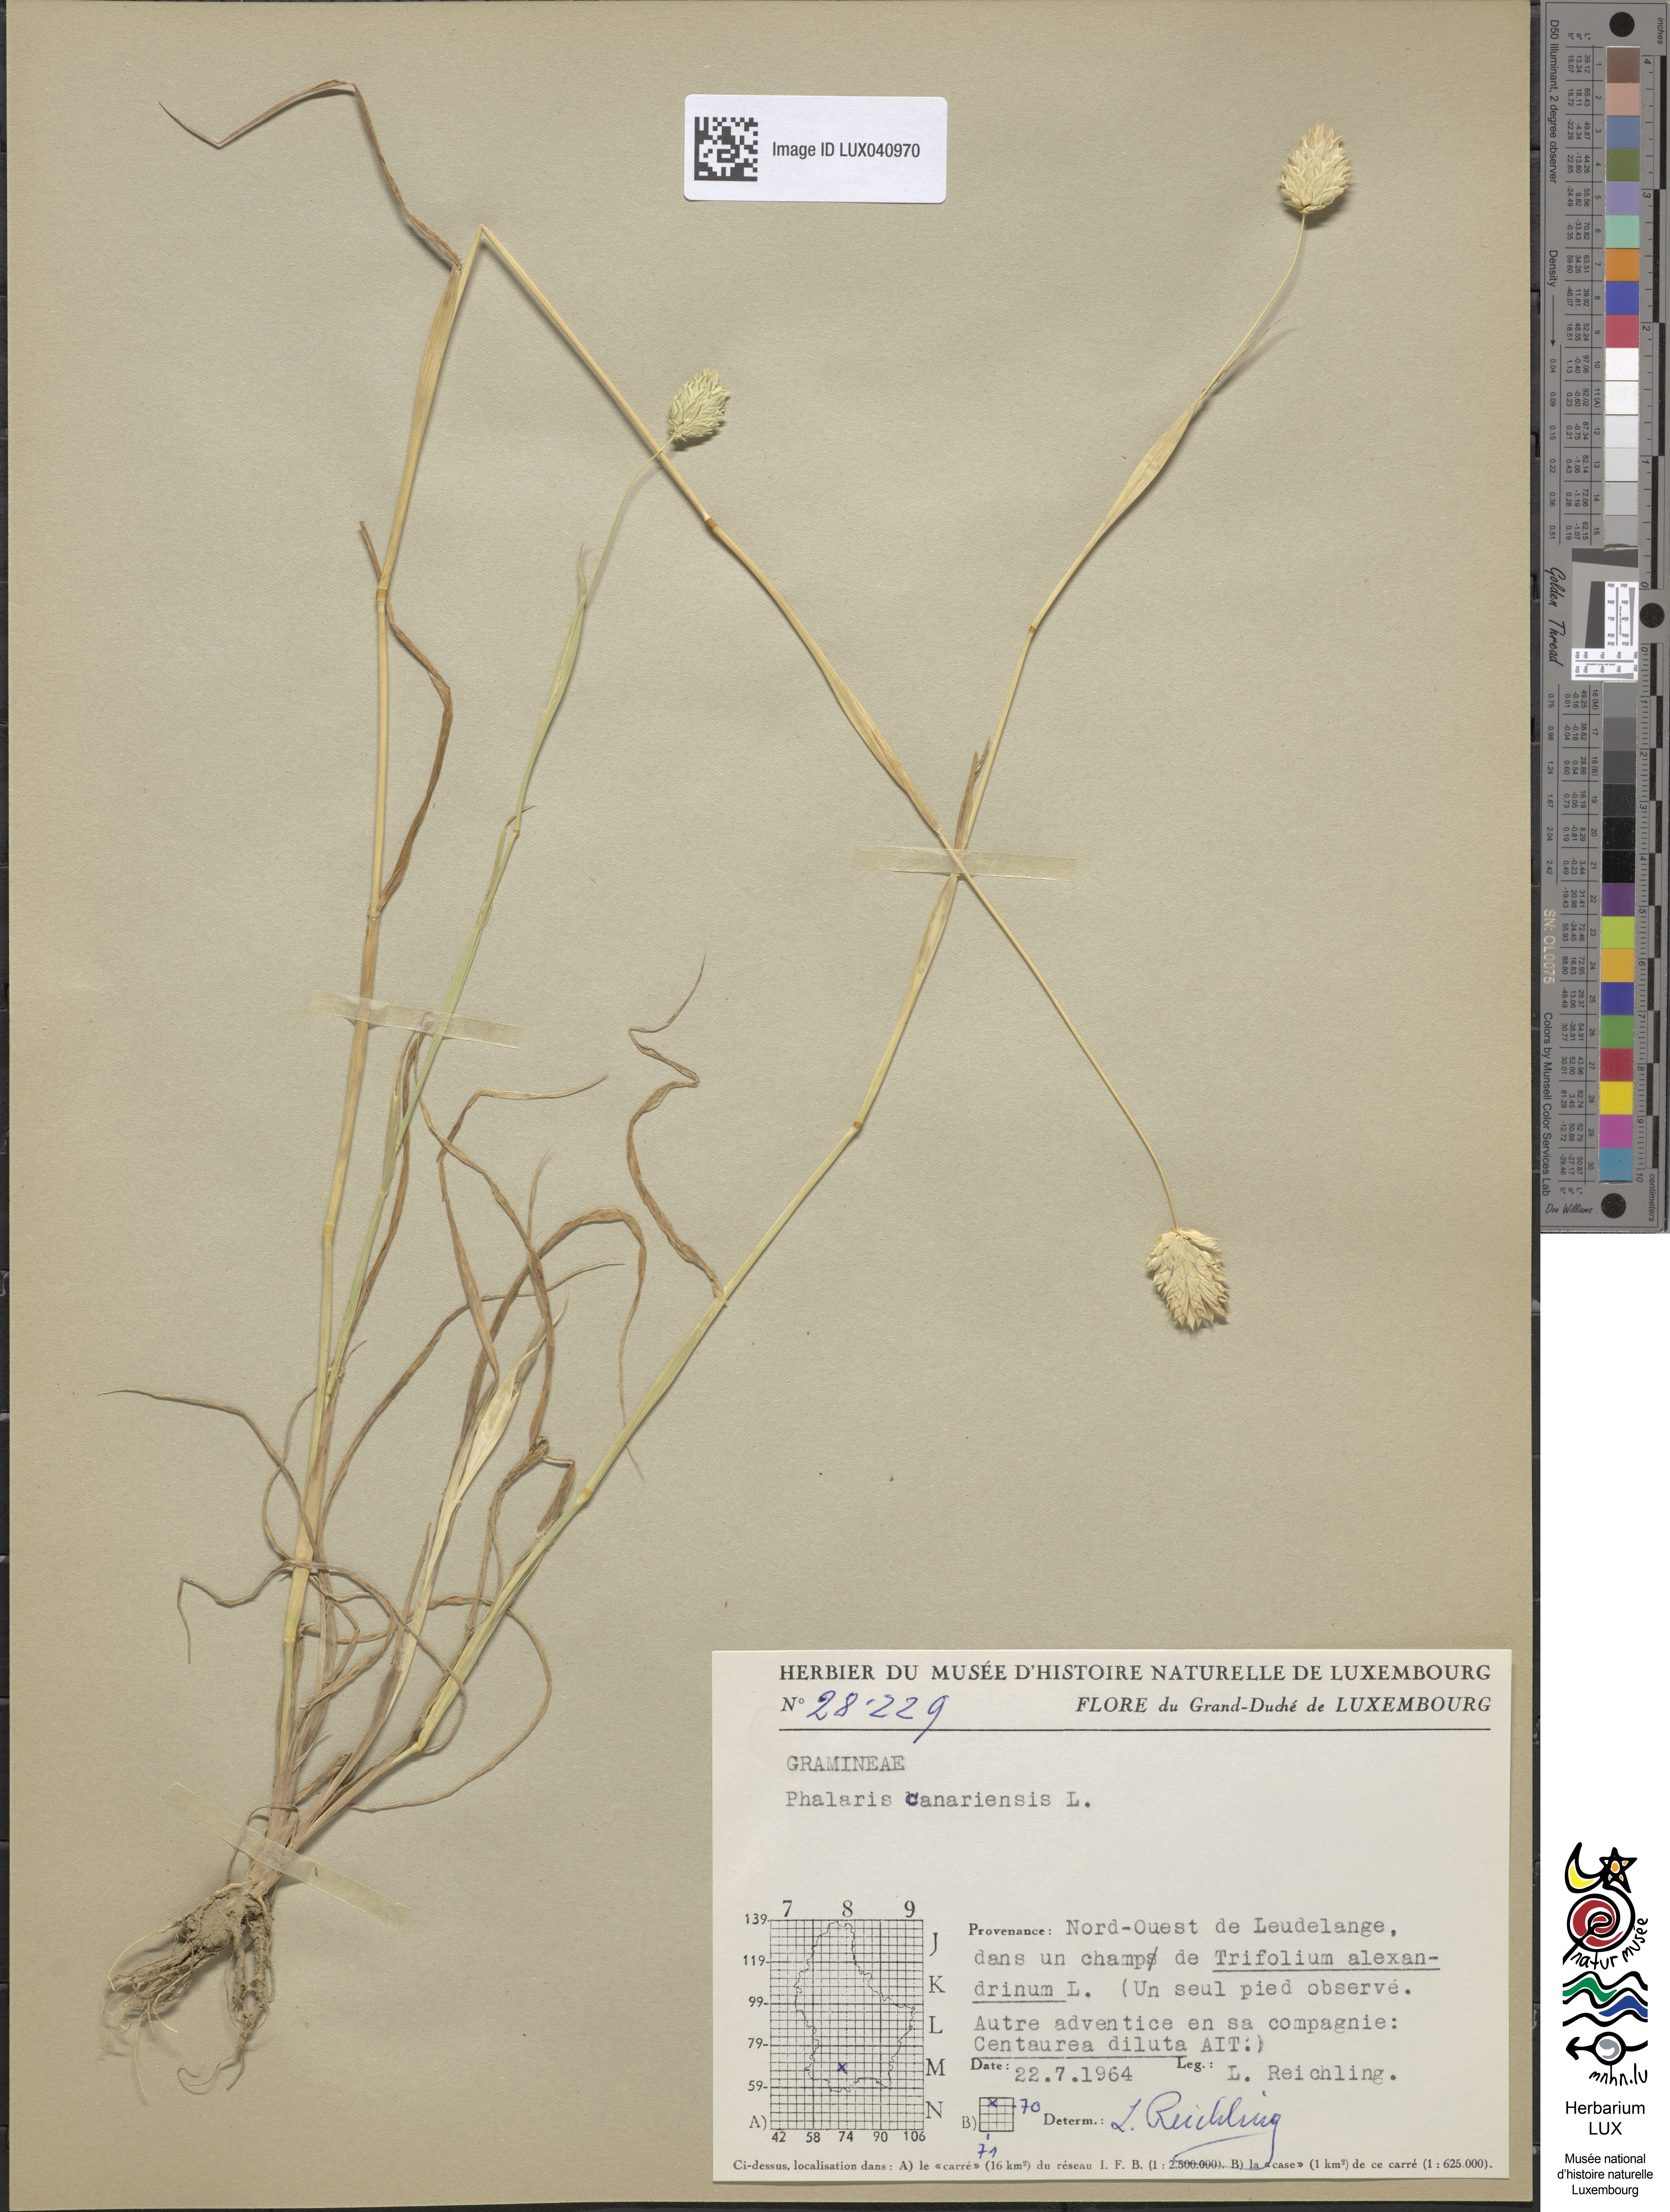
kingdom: Plantae
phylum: Tracheophyta
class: Liliopsida
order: Poales
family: Poaceae
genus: Phalaris
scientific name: Phalaris canariensis
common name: Annual canarygrass
